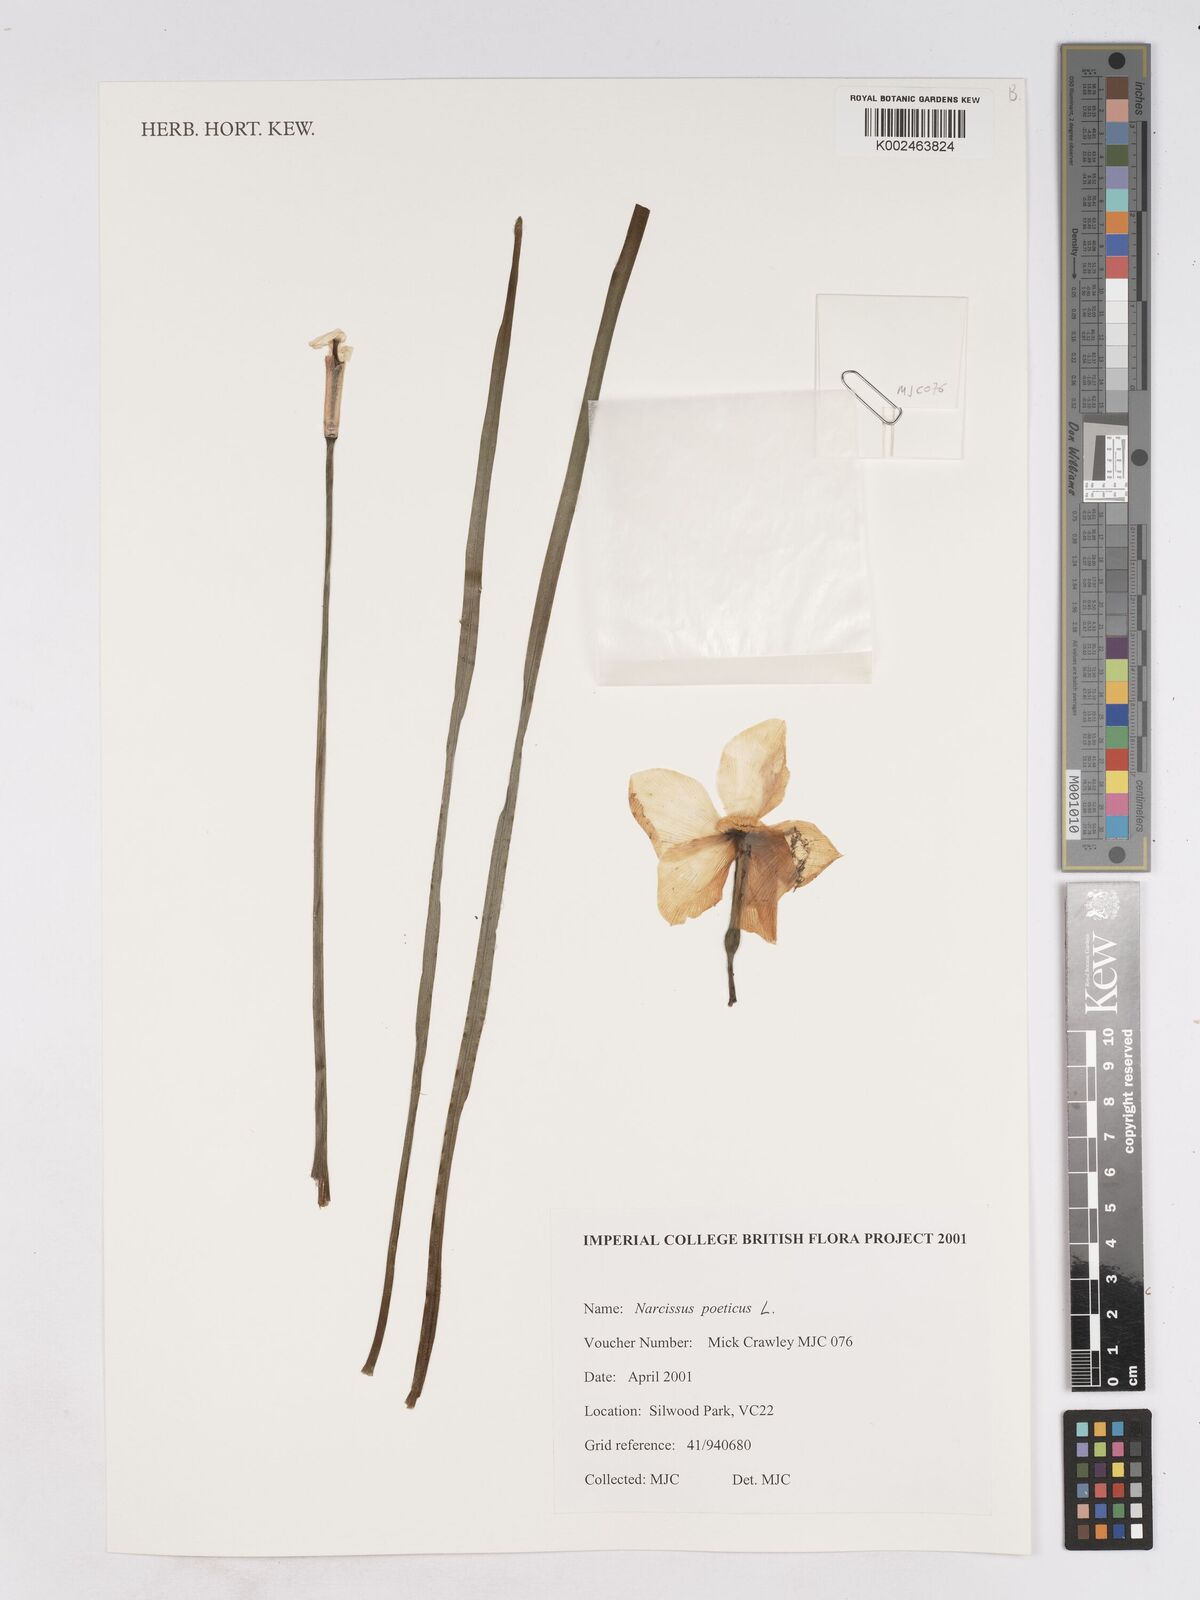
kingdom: Plantae
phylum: Tracheophyta
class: Liliopsida
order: Asparagales
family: Amaryllidaceae
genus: Narcissus
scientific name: Narcissus poeticus
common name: Pheasant's-eye daffodil
